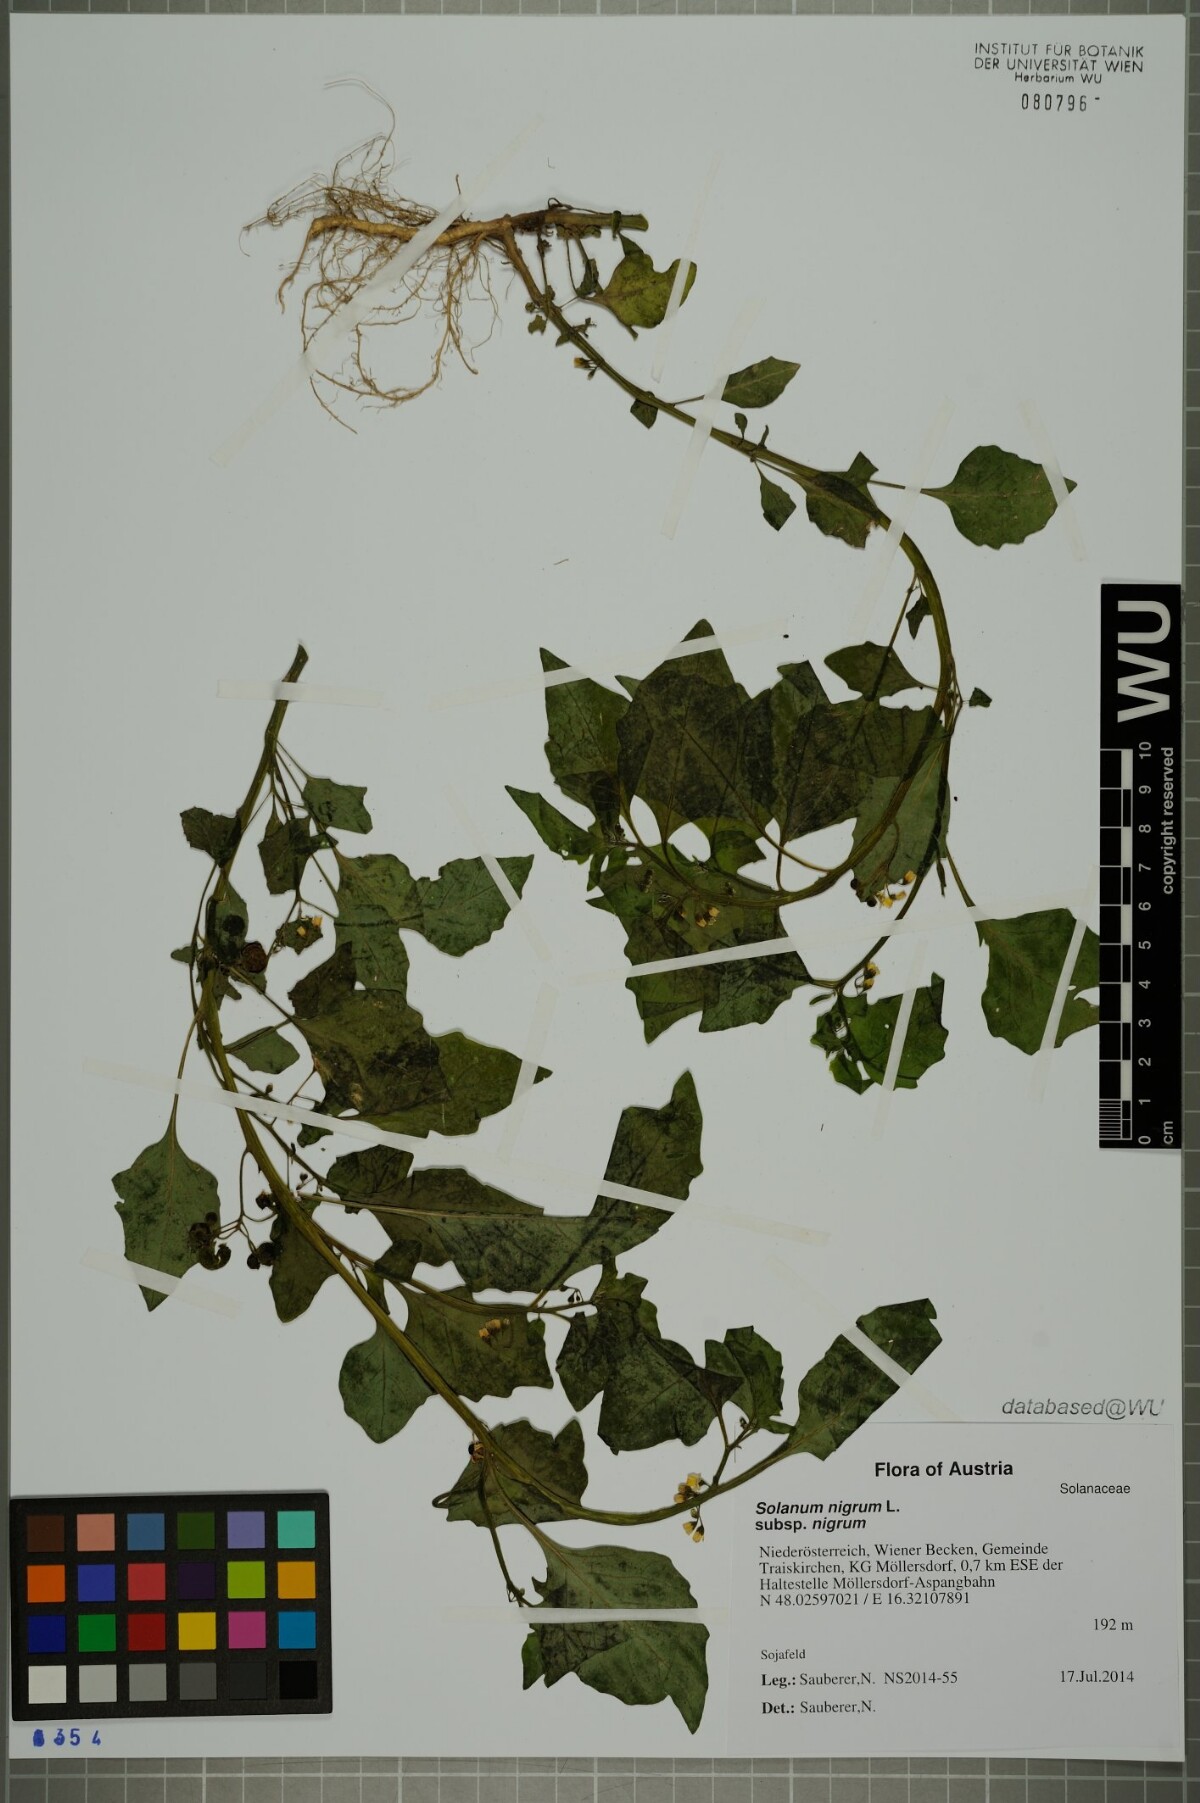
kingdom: Plantae
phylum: Tracheophyta
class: Magnoliopsida
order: Solanales
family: Solanaceae
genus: Solanum
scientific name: Solanum nigrum
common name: Black nightshade
